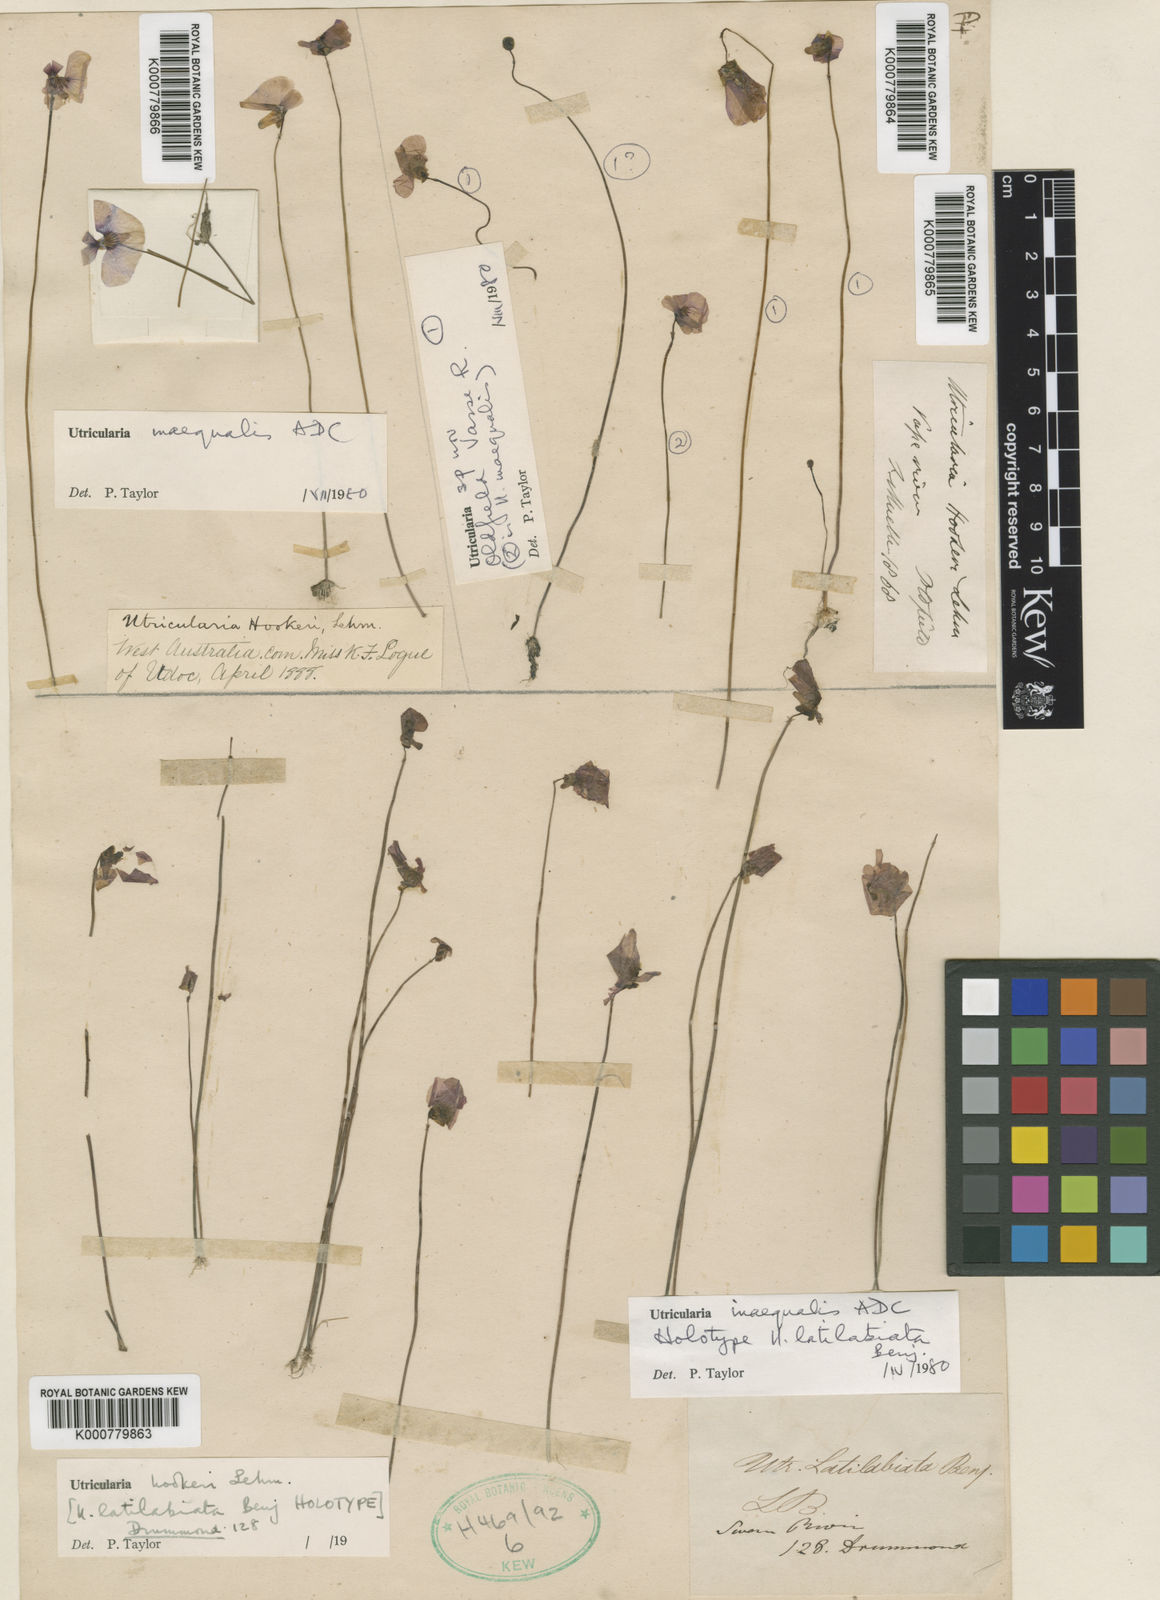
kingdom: Plantae
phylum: Tracheophyta
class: Magnoliopsida
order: Lamiales
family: Lentibulariaceae
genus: Utricularia
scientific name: Utricularia inaequalis
